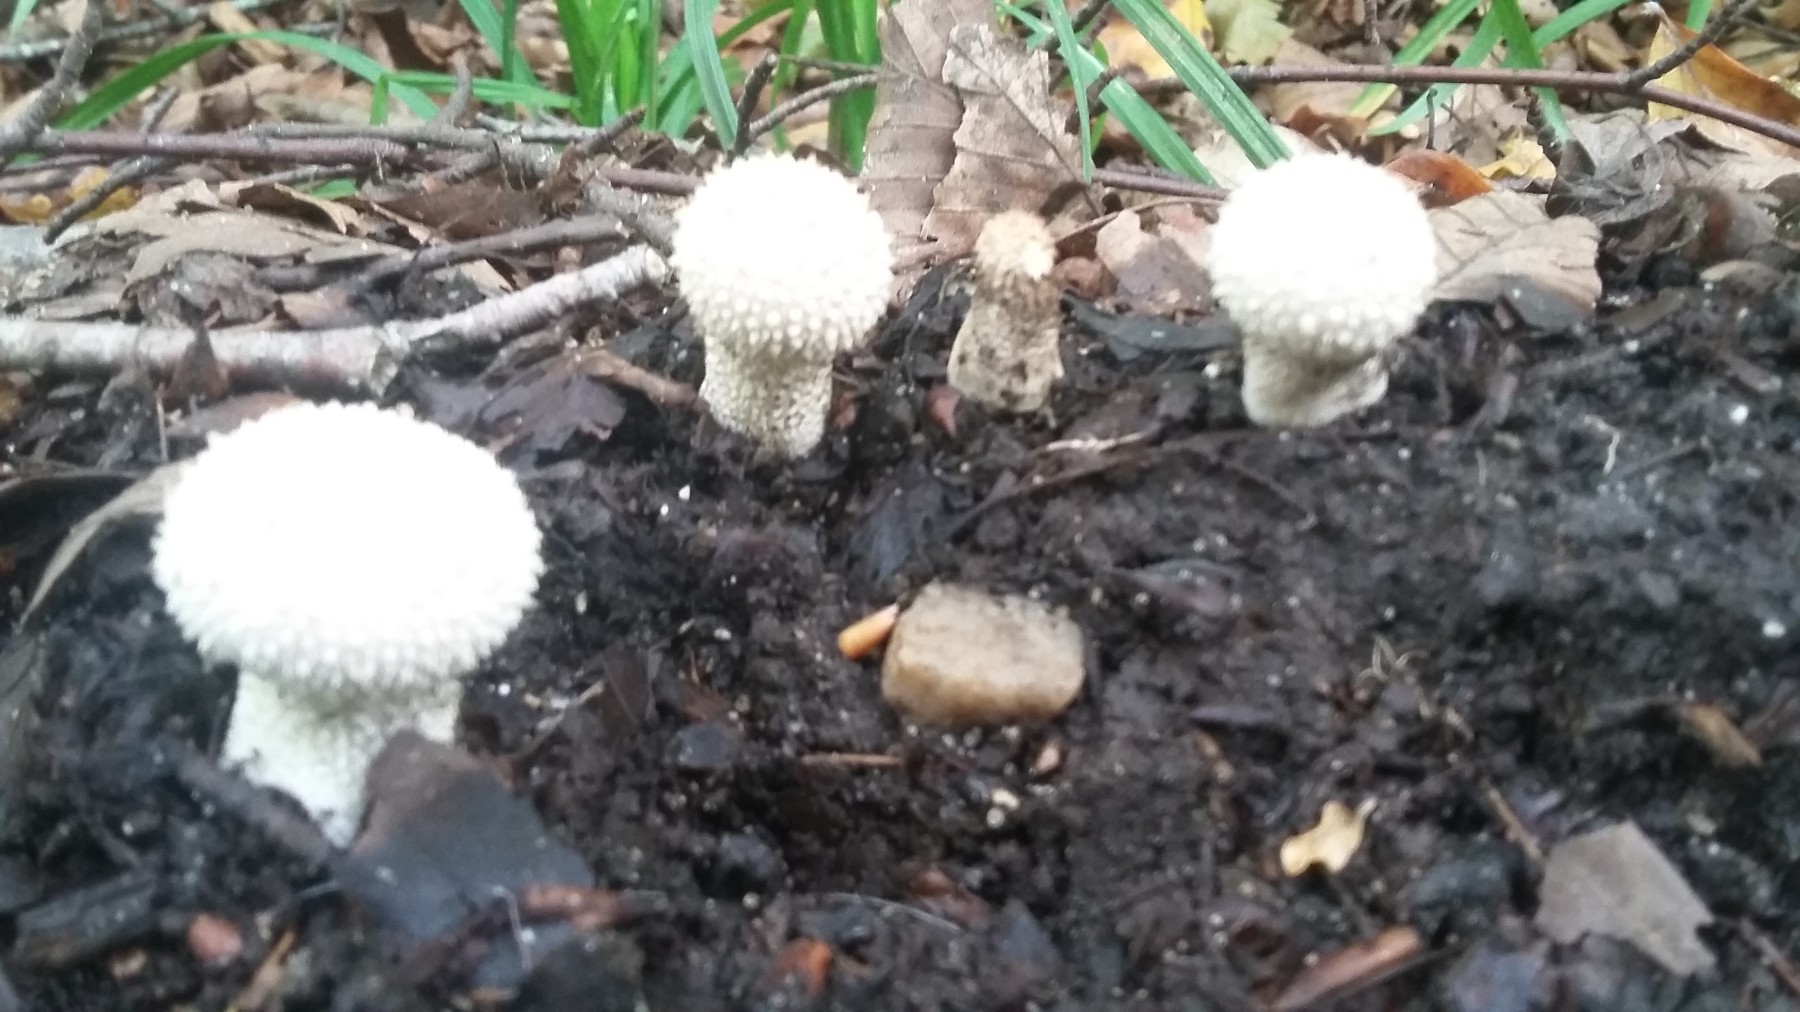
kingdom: Fungi
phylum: Basidiomycota
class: Agaricomycetes
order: Agaricales
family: Lycoperdaceae
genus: Lycoperdon
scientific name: Lycoperdon perlatum
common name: krystal-støvbold
